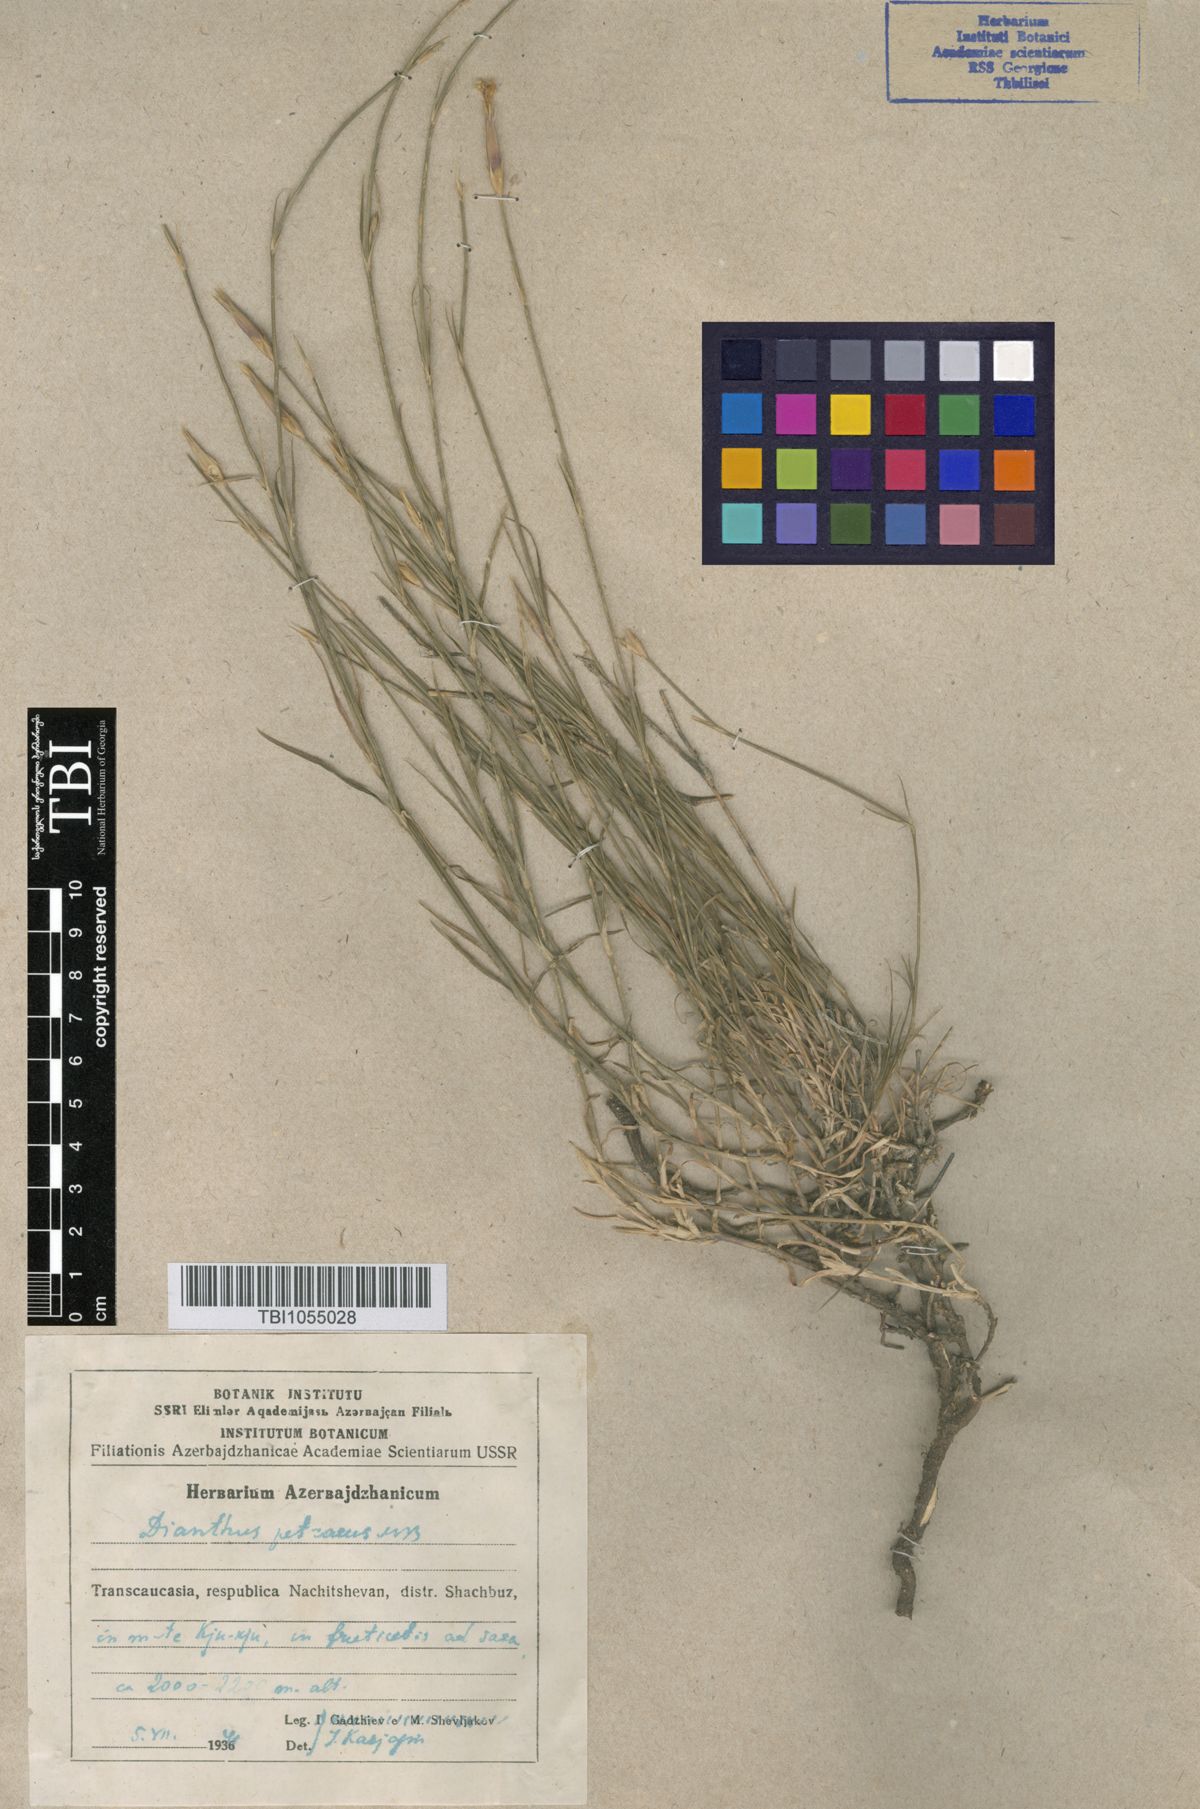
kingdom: Plantae
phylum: Tracheophyta
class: Magnoliopsida
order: Caryophyllales
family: Caryophyllaceae
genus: Dianthus
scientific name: Dianthus cretaceus
